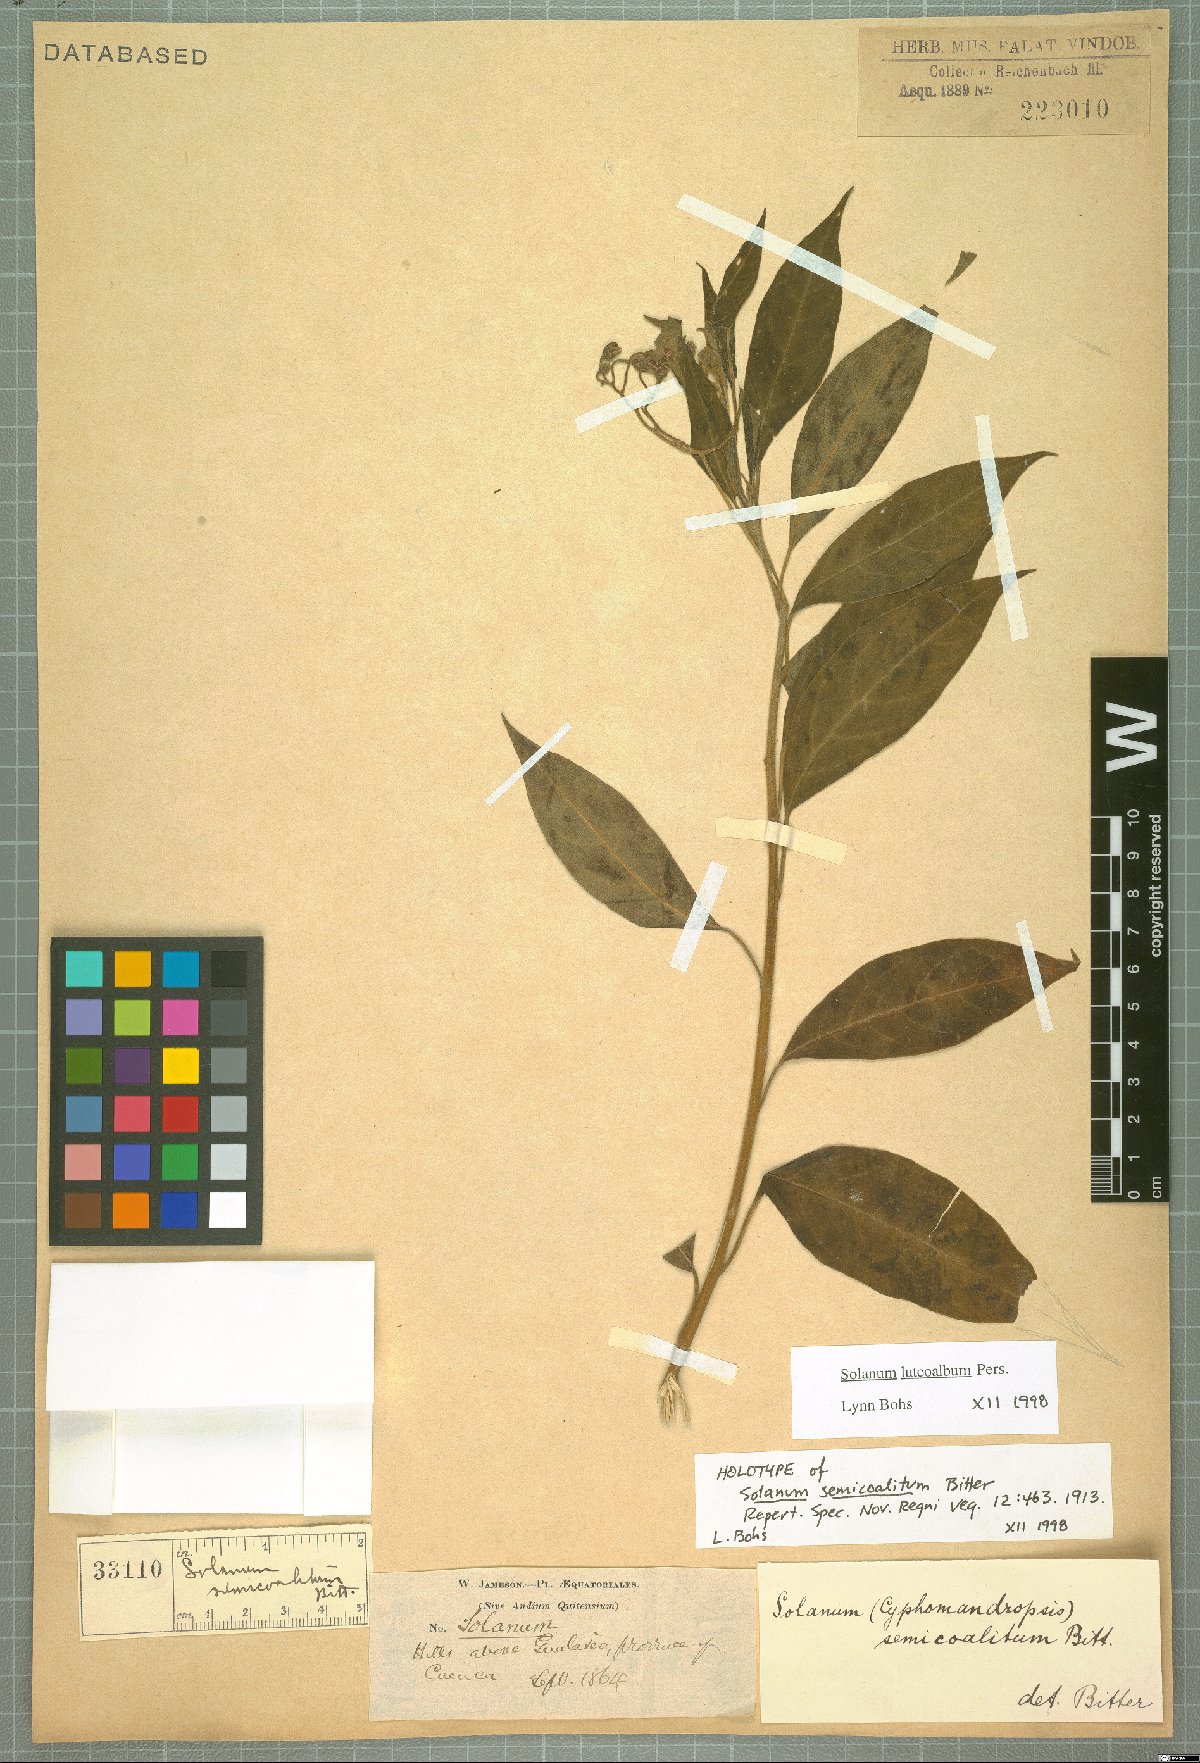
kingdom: Plantae
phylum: Tracheophyta
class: Magnoliopsida
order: Solanales
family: Solanaceae
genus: Solanum
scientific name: Solanum luteoalbum
